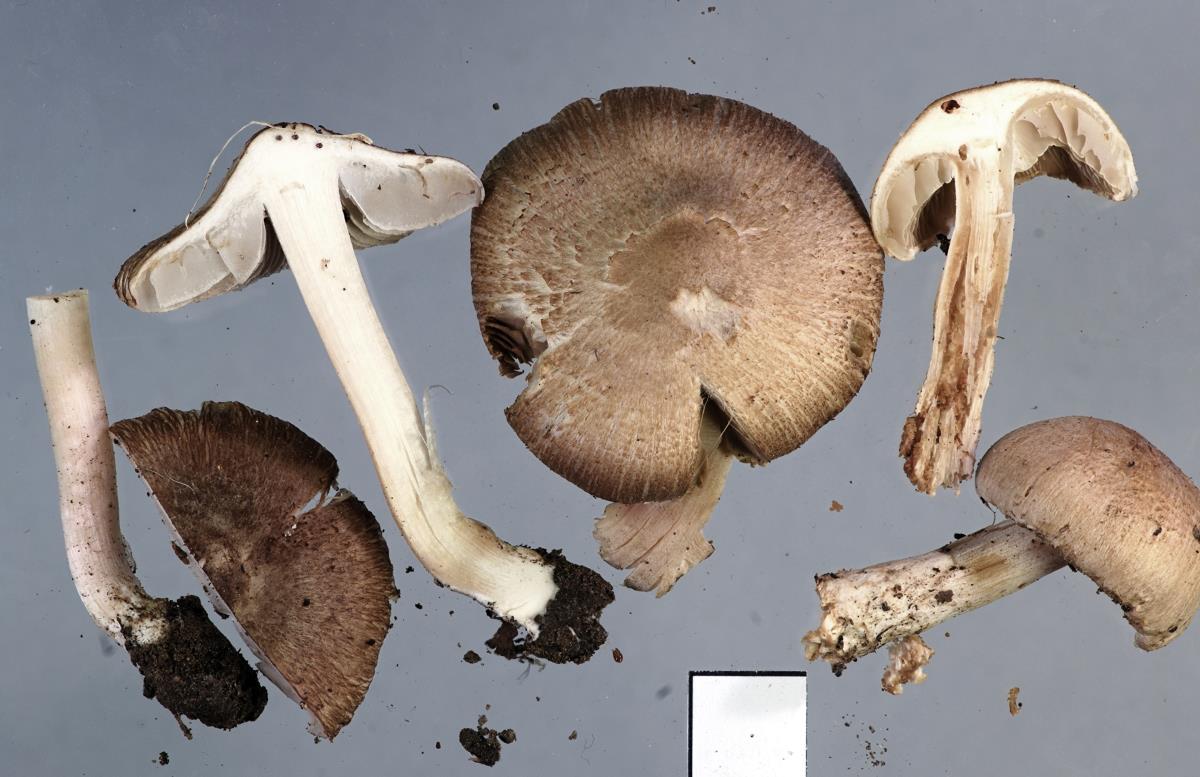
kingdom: Fungi
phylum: Basidiomycota
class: Agaricomycetes
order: Agaricales
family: Inocybaceae
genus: Inocybe
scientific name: Inocybe sindonia
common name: Beige fibrecap
